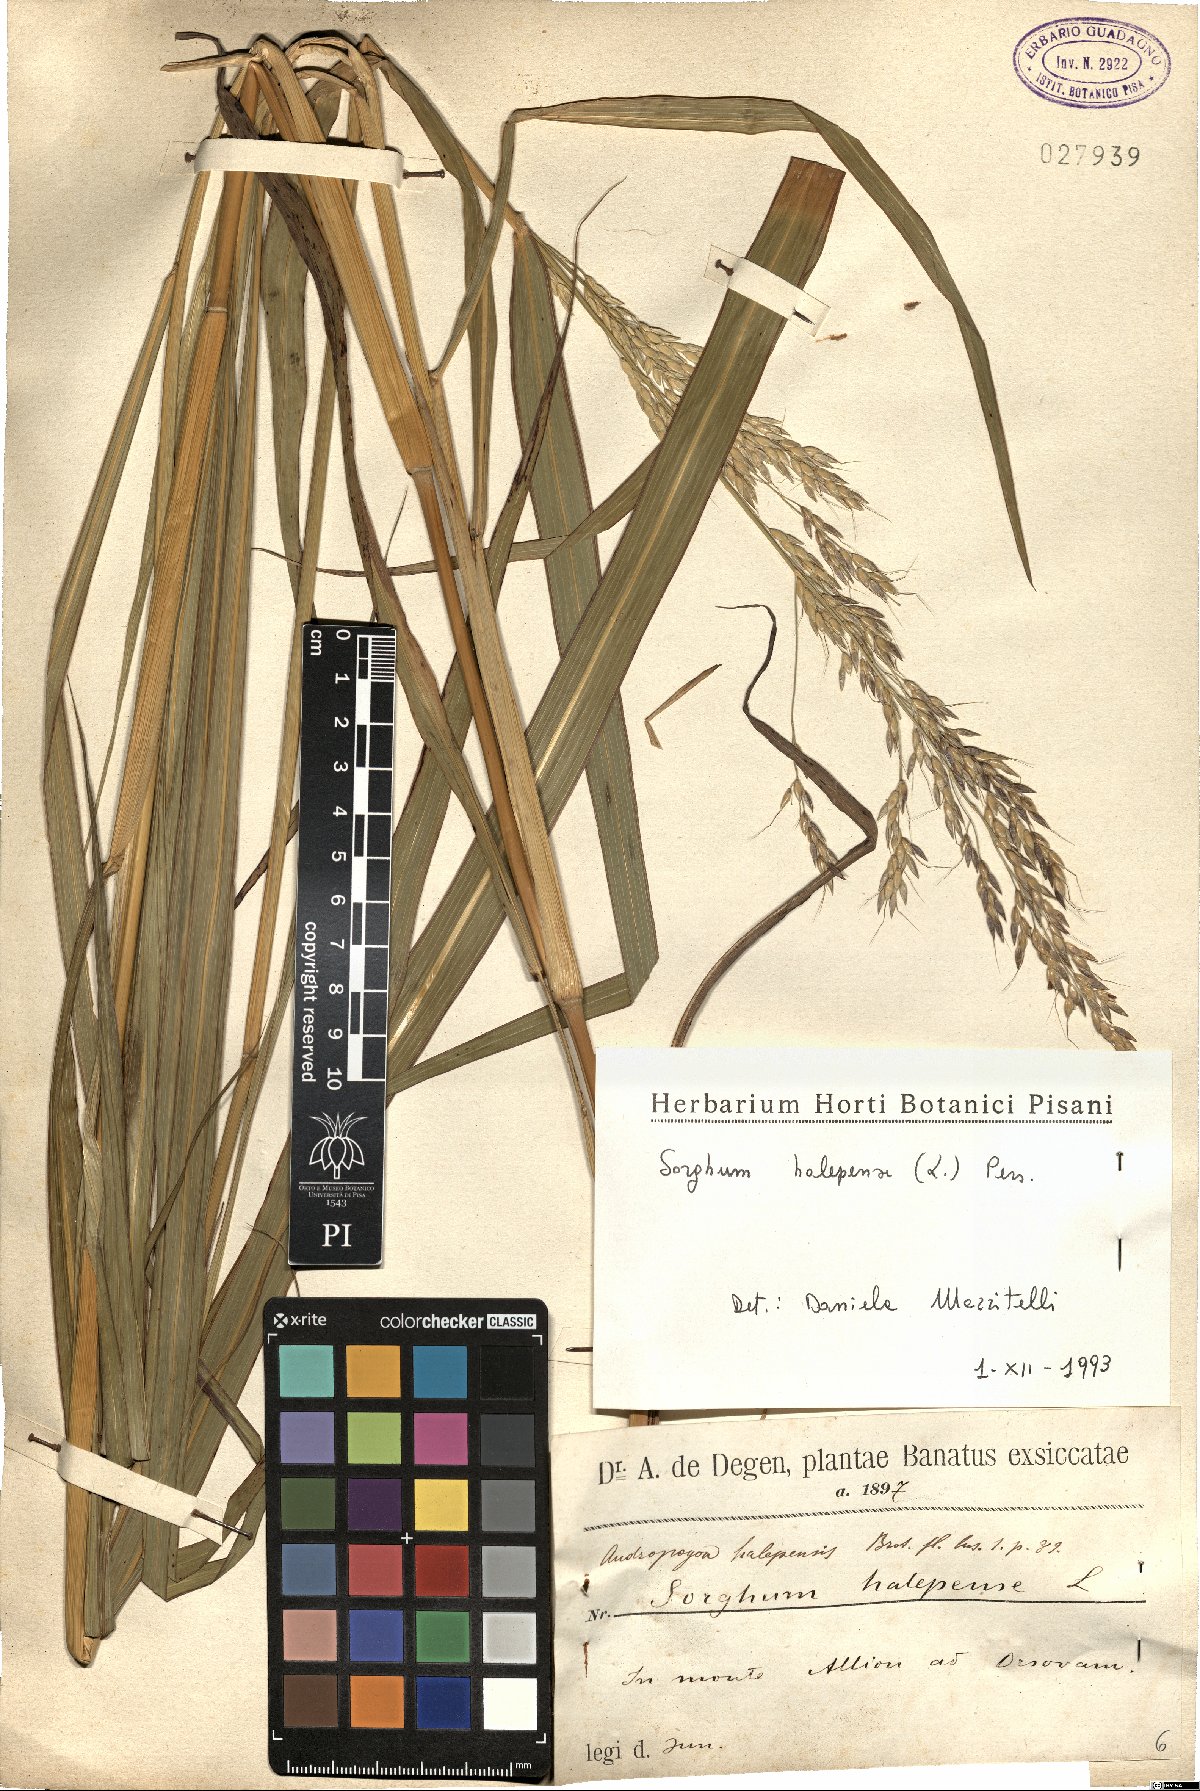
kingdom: Plantae
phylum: Tracheophyta
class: Liliopsida
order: Poales
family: Poaceae
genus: Sorghum
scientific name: Sorghum halepense
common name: Johnson-grass
